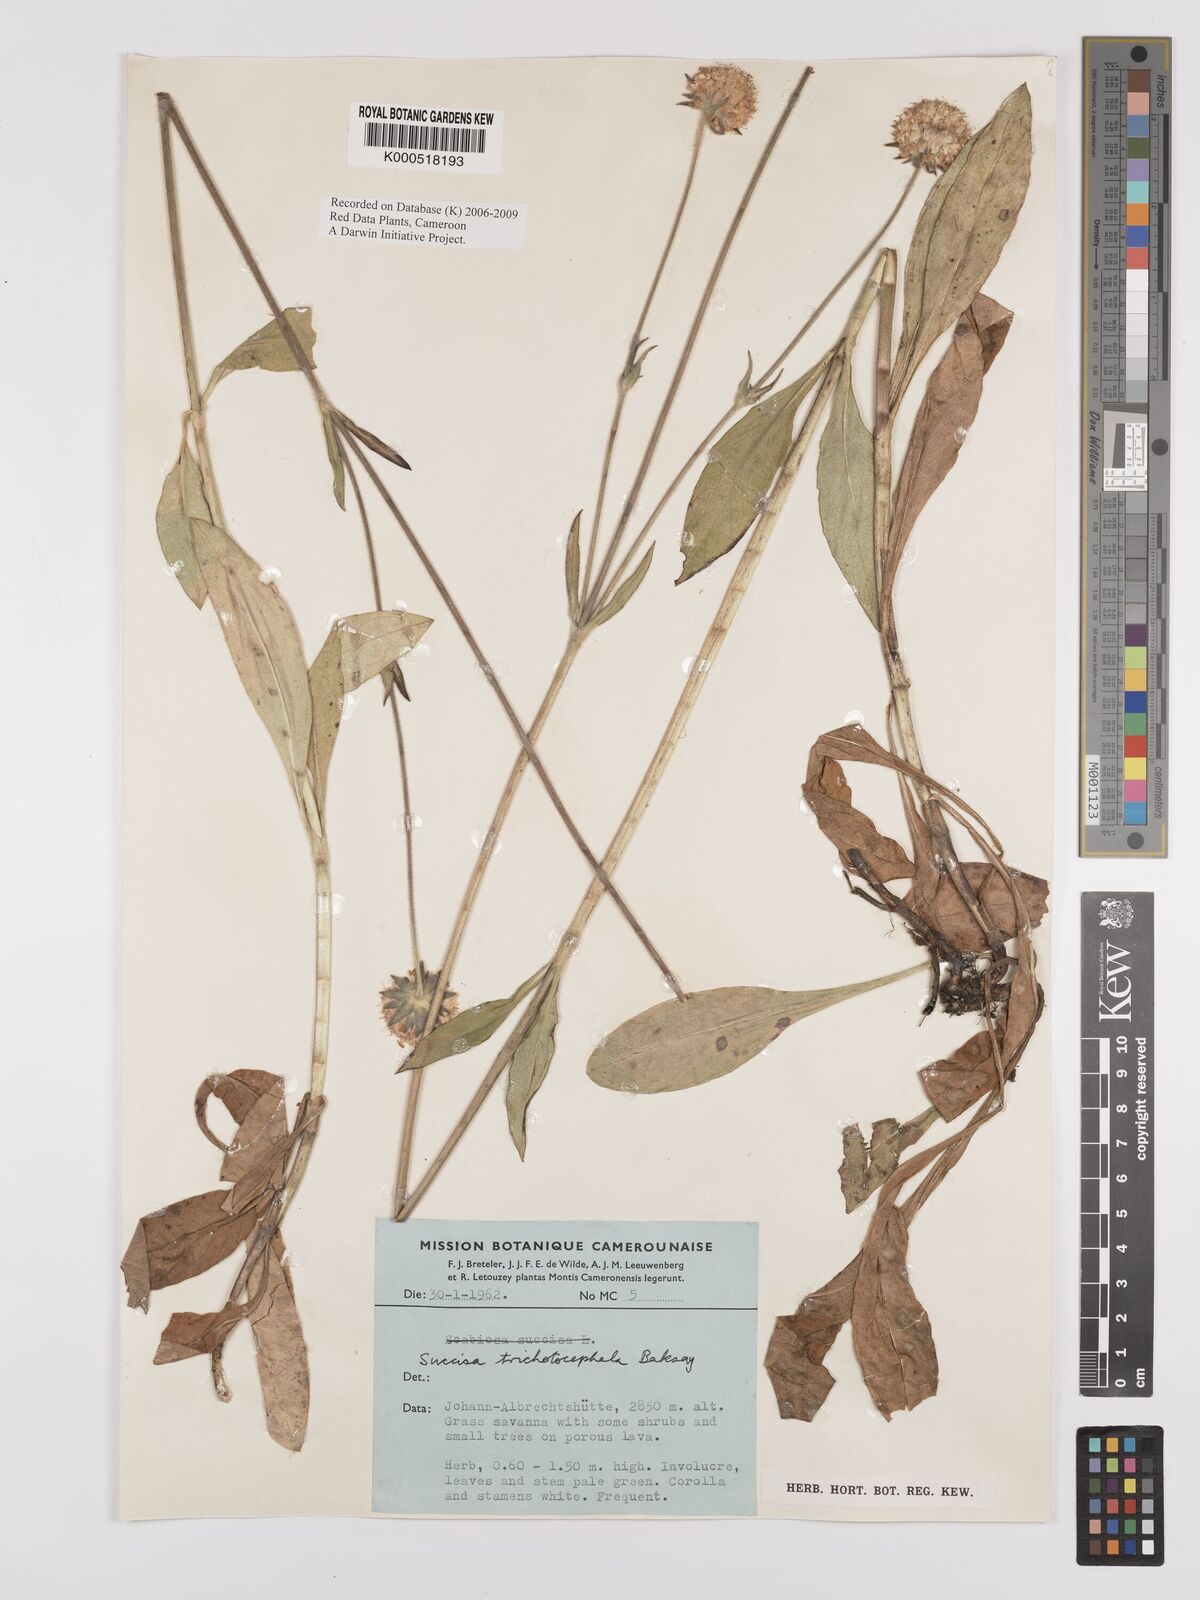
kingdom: Plantae
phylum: Tracheophyta
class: Magnoliopsida
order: Dipsacales
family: Caprifoliaceae
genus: Succisa
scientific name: Succisa trichotocephala
